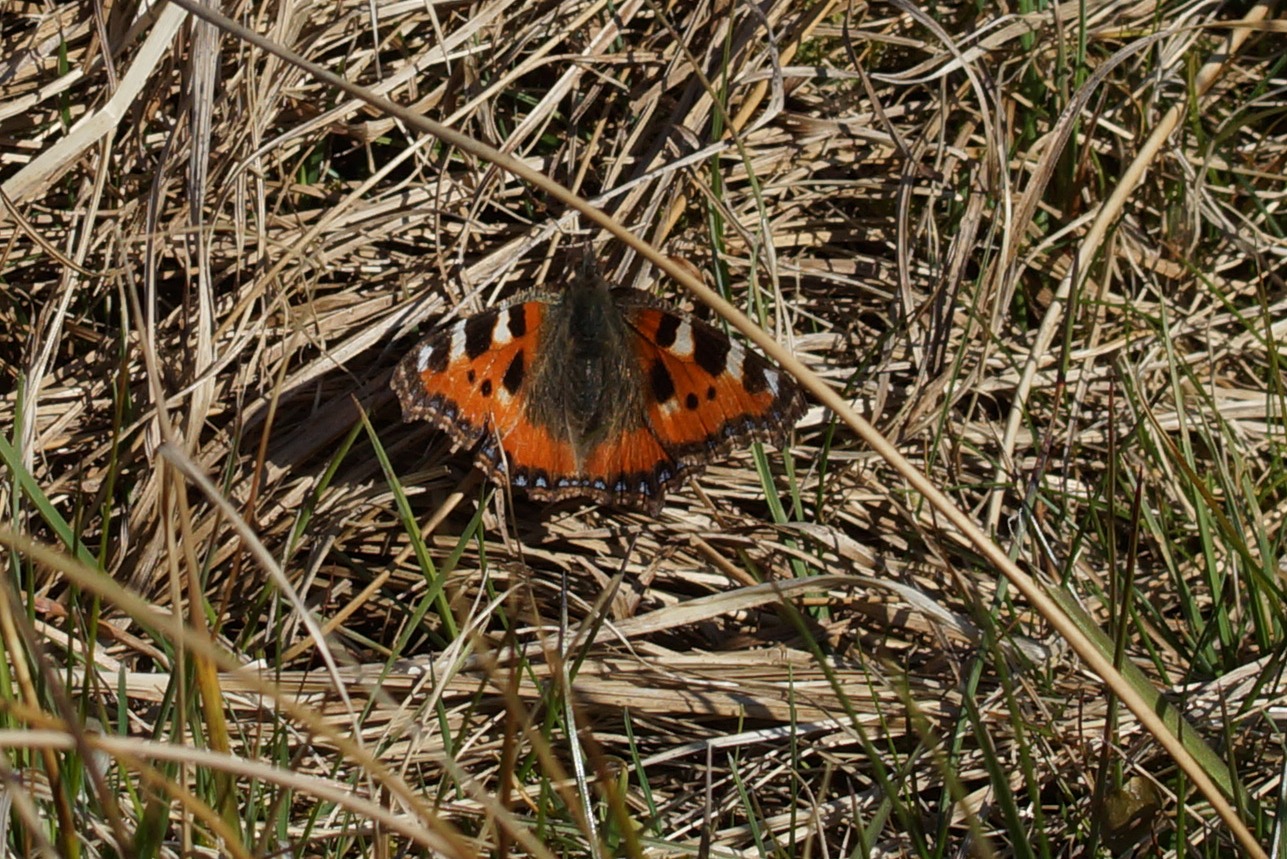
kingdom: Animalia
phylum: Arthropoda
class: Insecta
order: Lepidoptera
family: Nymphalidae
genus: Aglais
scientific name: Aglais urticae
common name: Nældens takvinge
